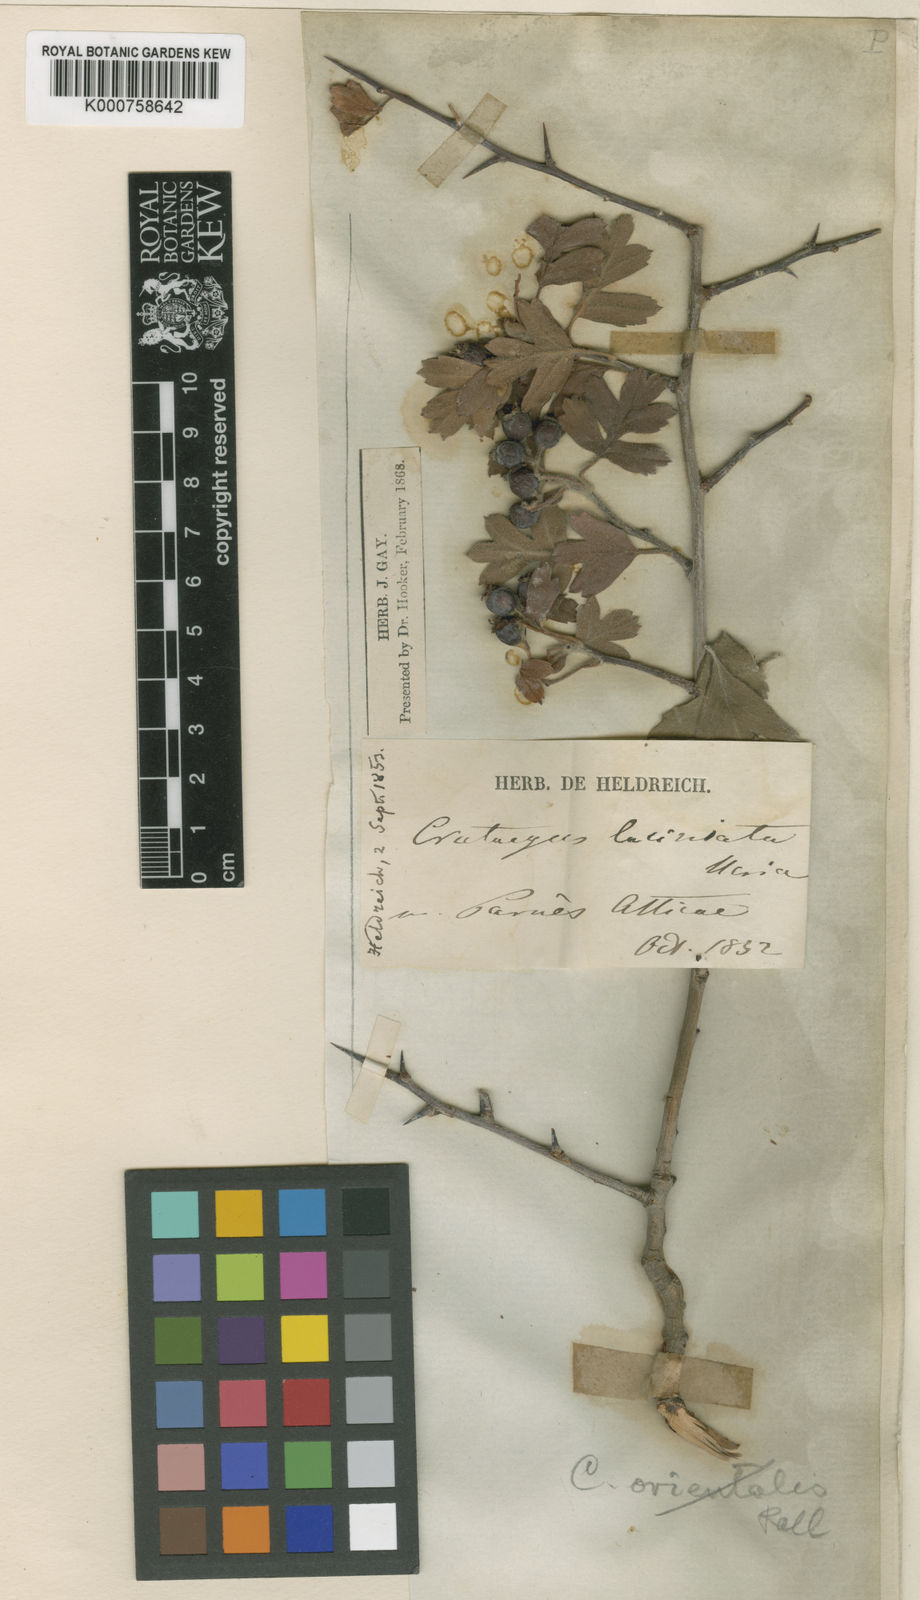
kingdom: Plantae
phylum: Tracheophyta
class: Magnoliopsida
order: Rosales
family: Rosaceae
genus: Crataegus
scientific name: Crataegus heldreichii
